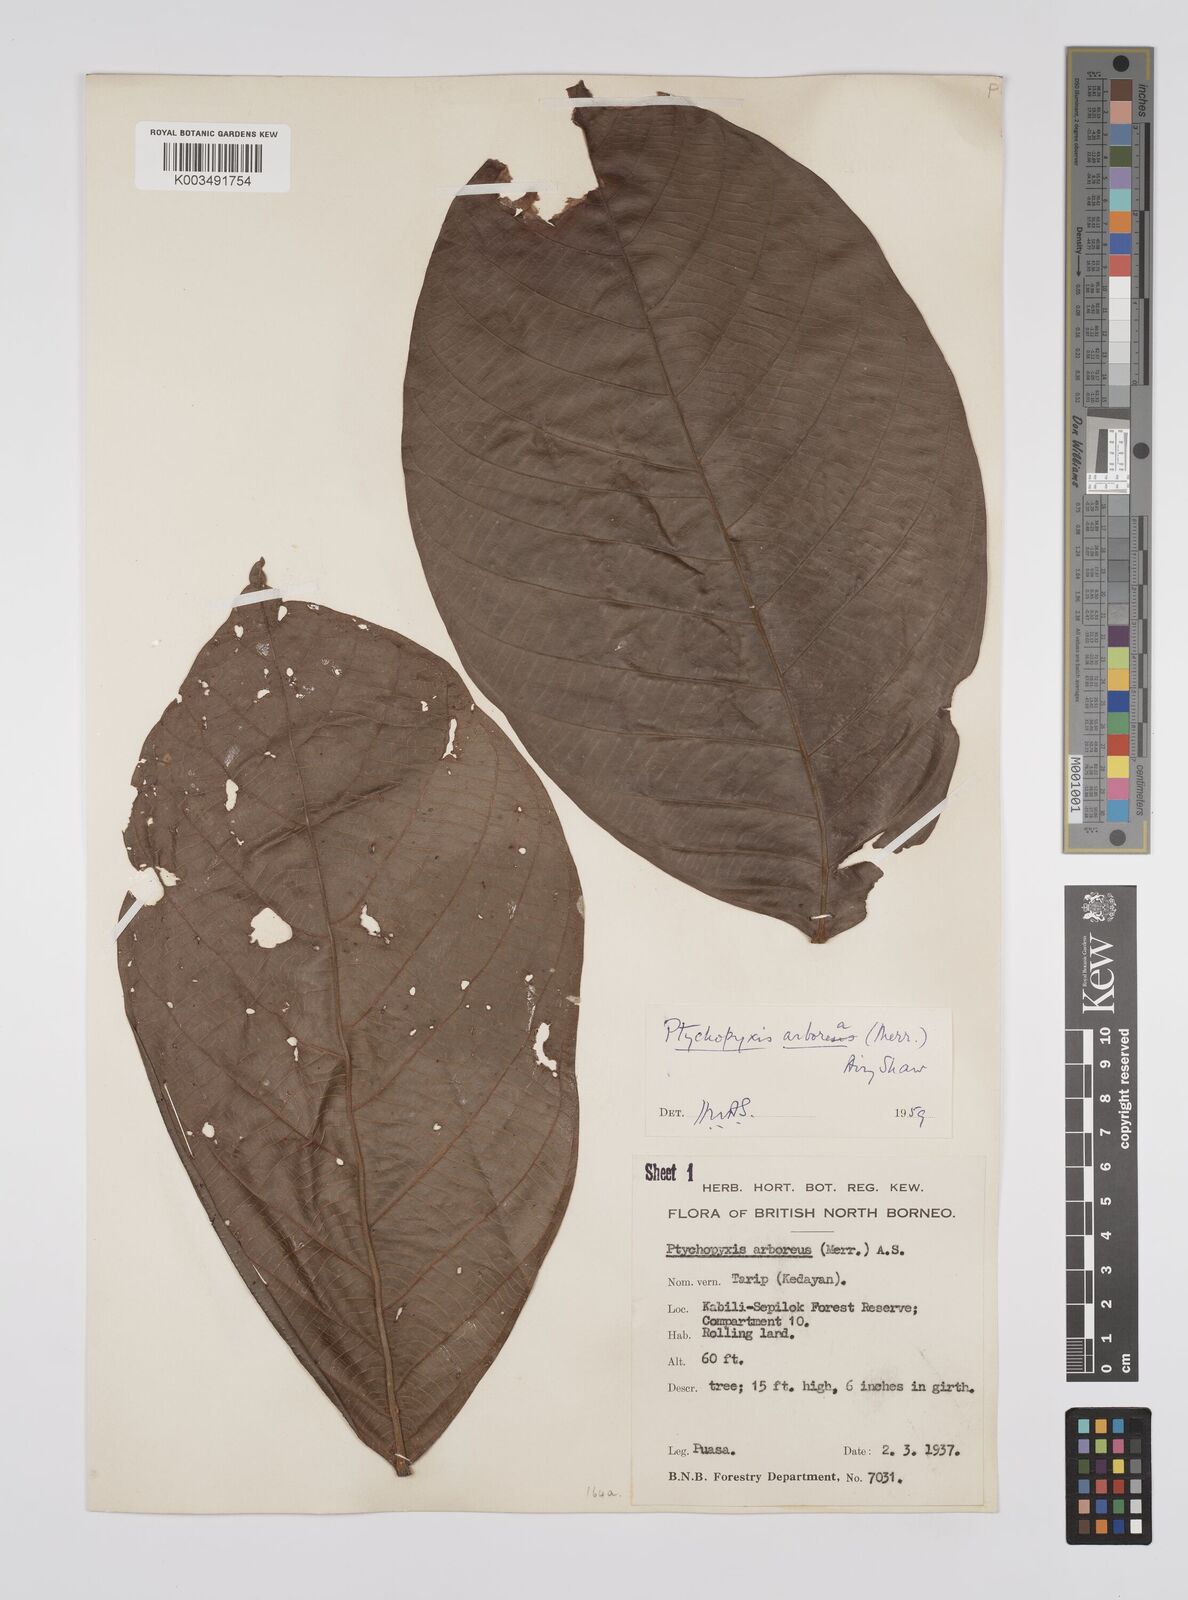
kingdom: Plantae
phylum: Tracheophyta
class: Magnoliopsida
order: Malpighiales
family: Euphorbiaceae
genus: Ptychopyxis
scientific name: Ptychopyxis arborea
